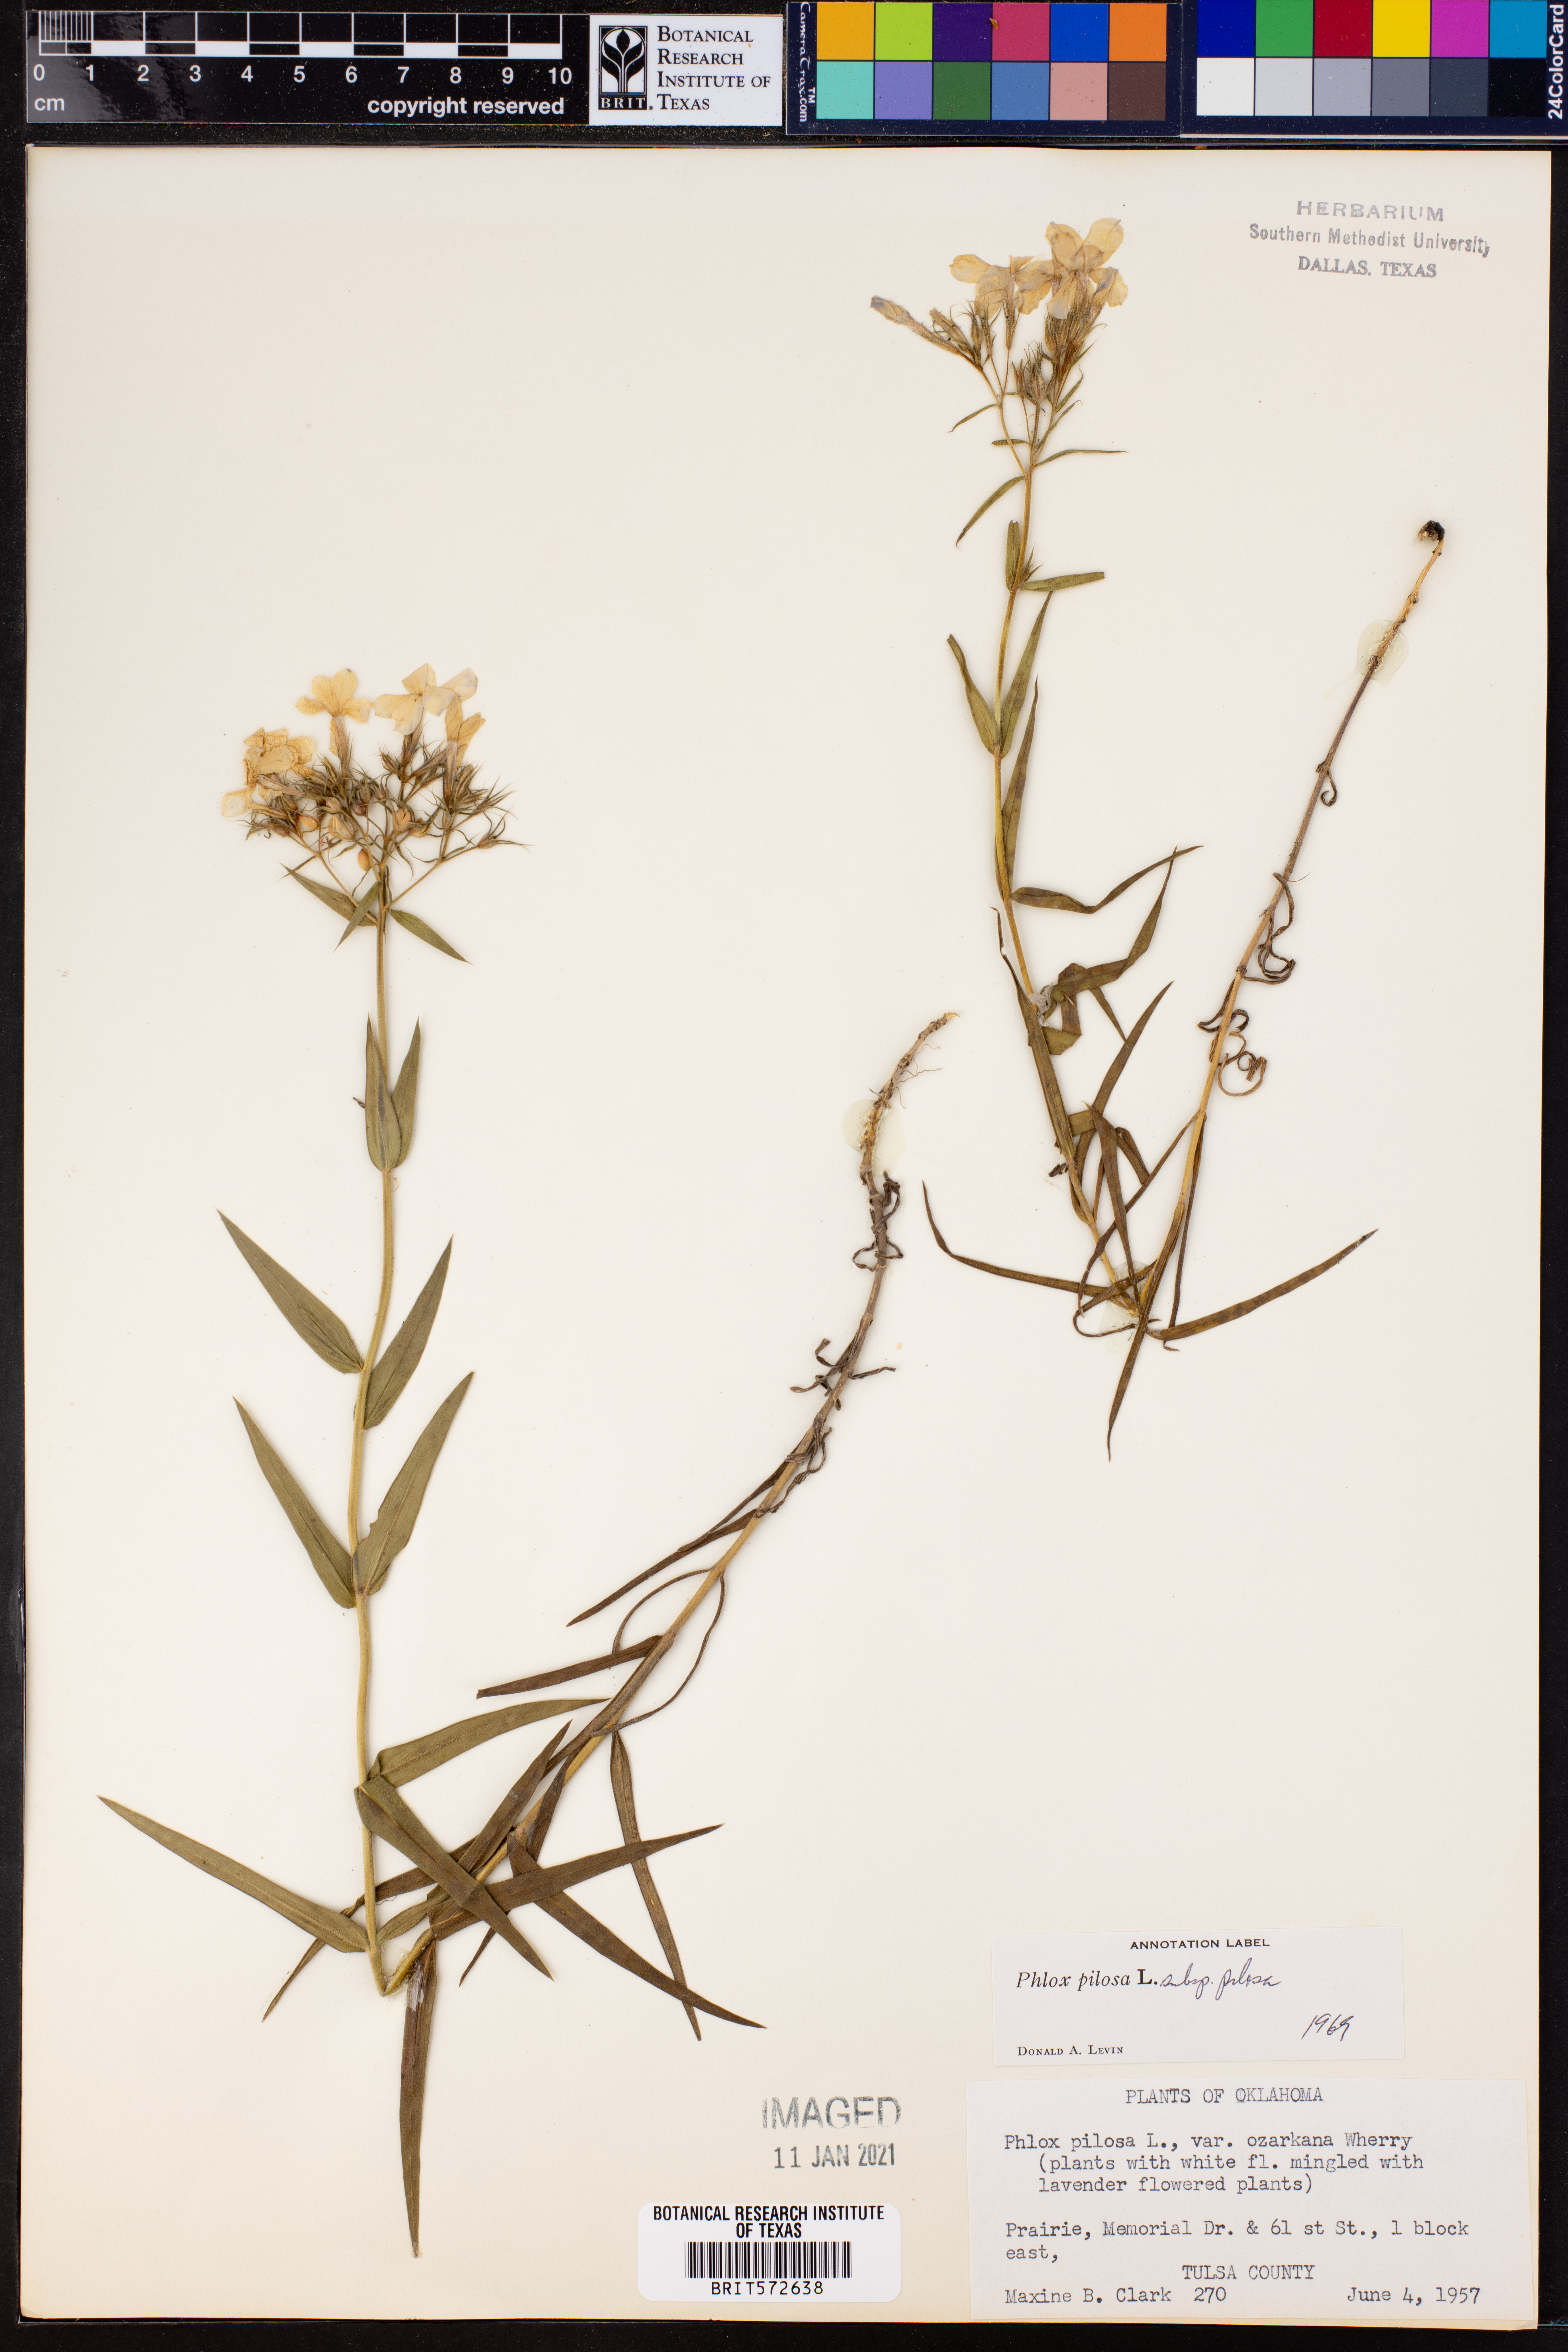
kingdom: Plantae
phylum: Tracheophyta
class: Magnoliopsida
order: Ericales
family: Polemoniaceae
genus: Phlox
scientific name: Phlox pilosa
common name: Prairie phlox
